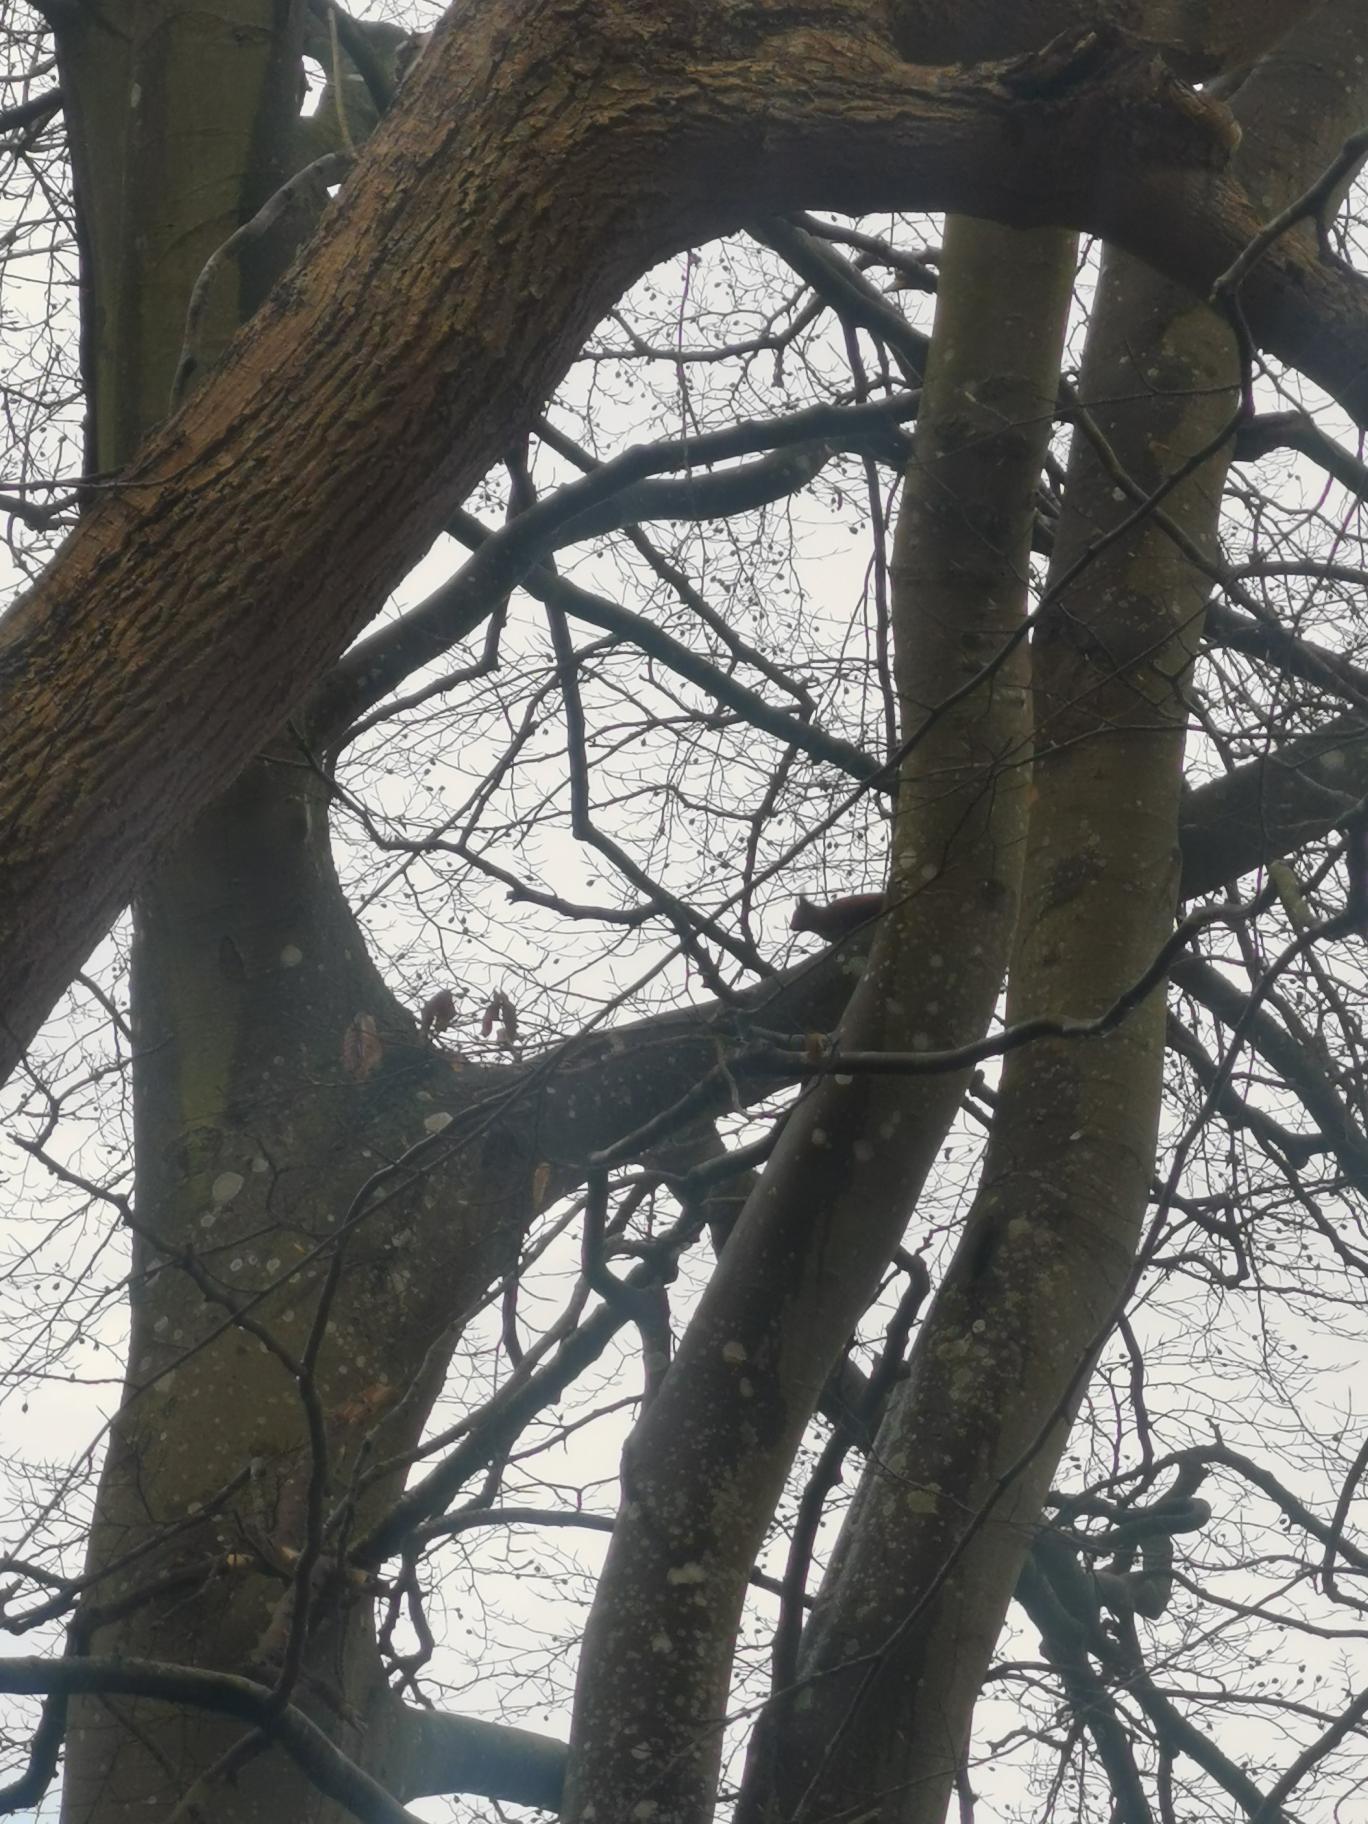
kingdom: Animalia
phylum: Chordata
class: Mammalia
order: Rodentia
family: Sciuridae
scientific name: Sciuridae
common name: Egern
